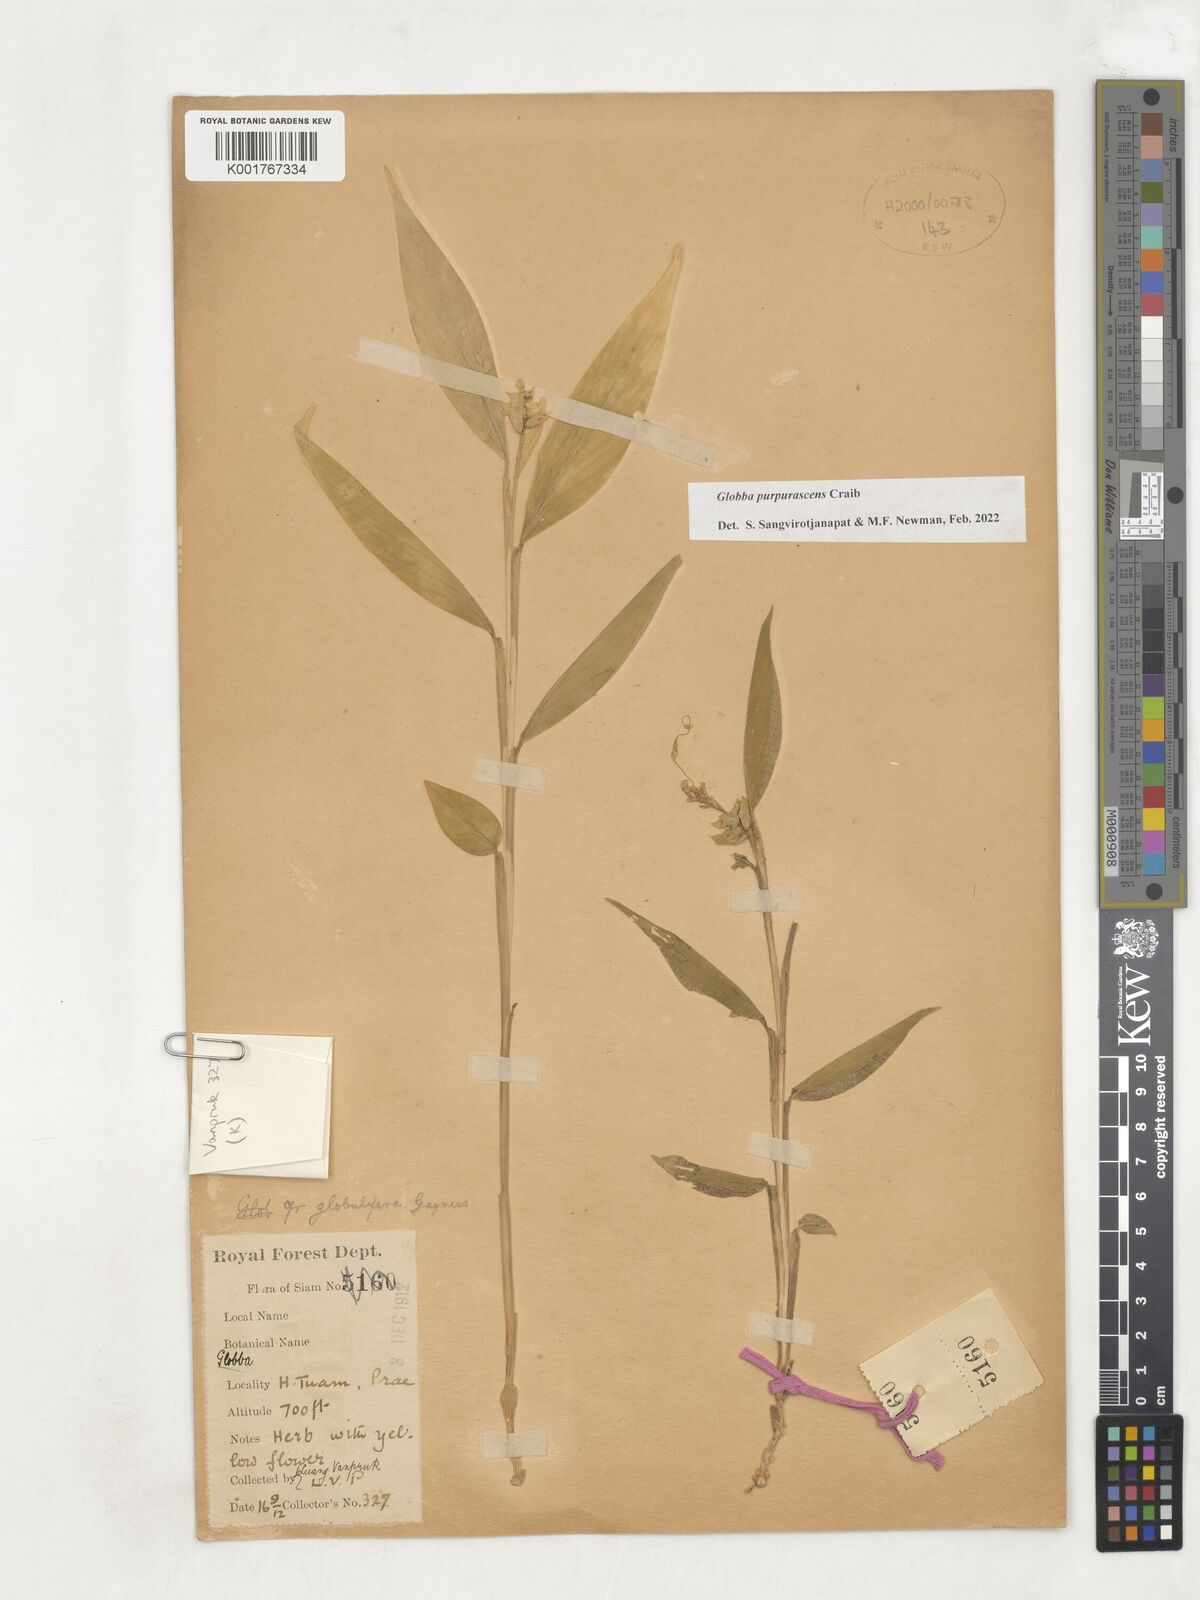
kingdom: Plantae
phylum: Tracheophyta
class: Liliopsida
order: Zingiberales
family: Zingiberaceae
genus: Globba
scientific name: Globba purpurascens
